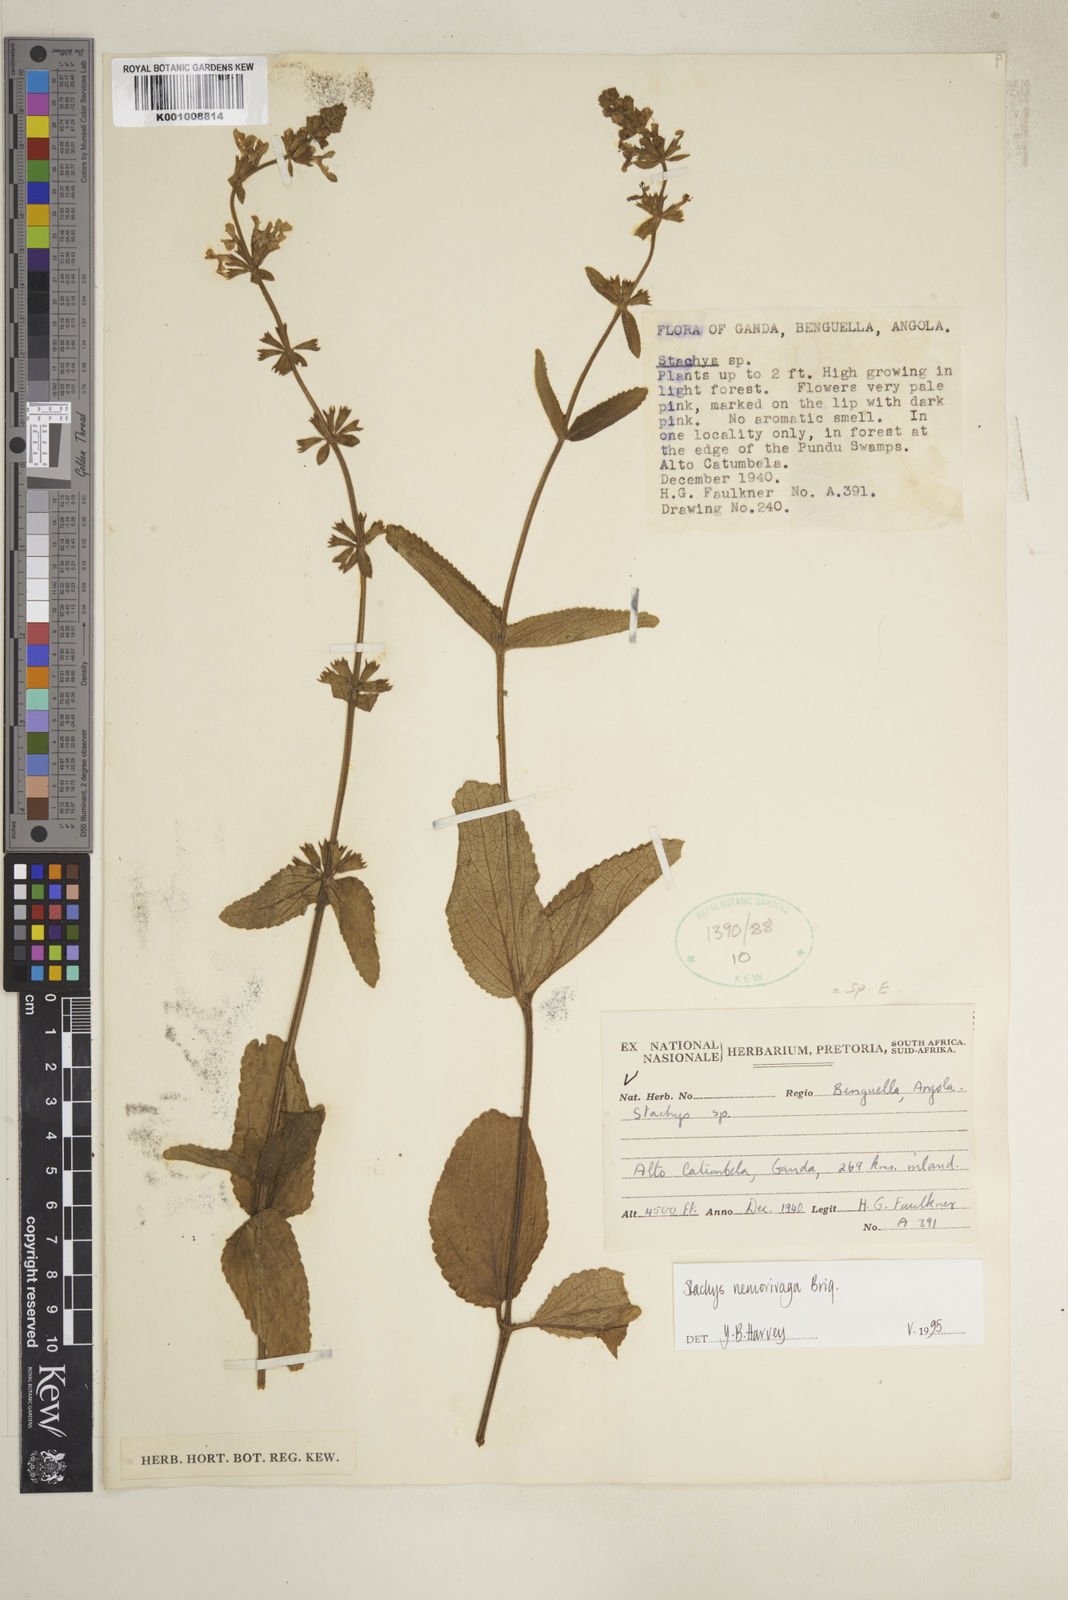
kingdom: Plantae
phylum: Tracheophyta
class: Magnoliopsida
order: Lamiales
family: Lamiaceae
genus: Stachys
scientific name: Stachys nemorivaga
